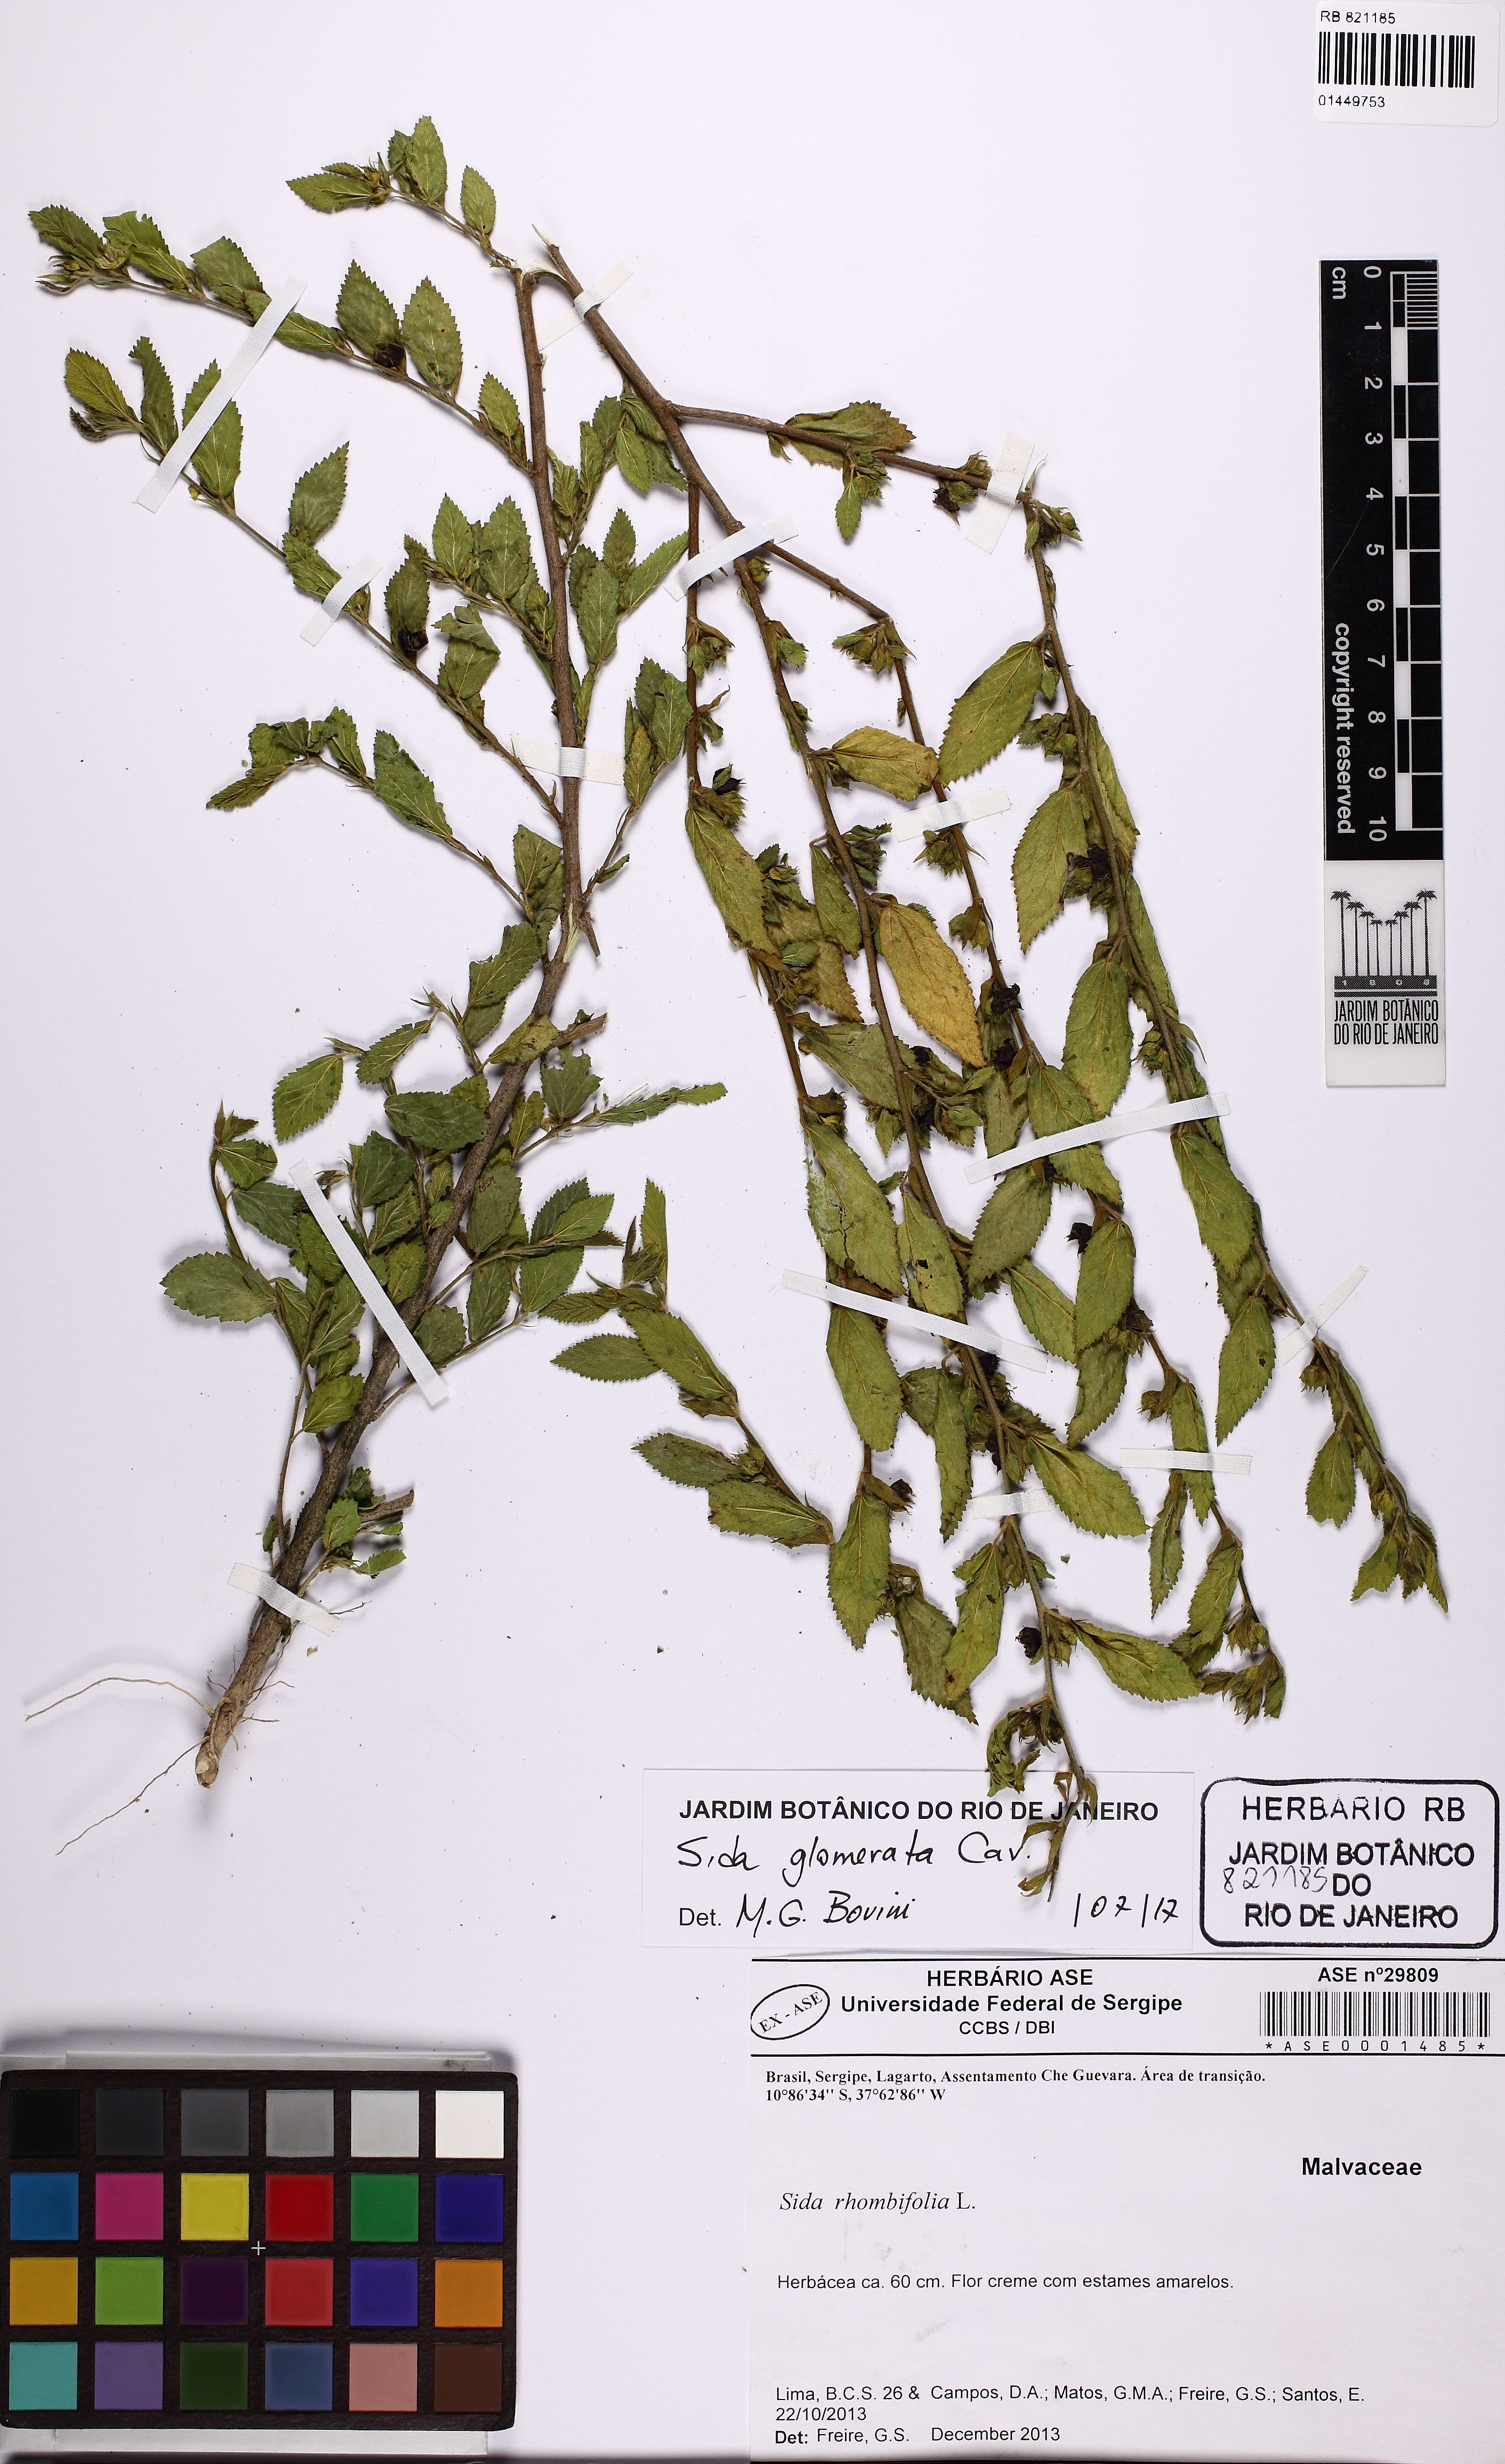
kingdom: Plantae
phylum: Tracheophyta
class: Magnoliopsida
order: Malvales
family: Malvaceae
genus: Sida
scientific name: Sida glomerata
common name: Clustered fanpetals
